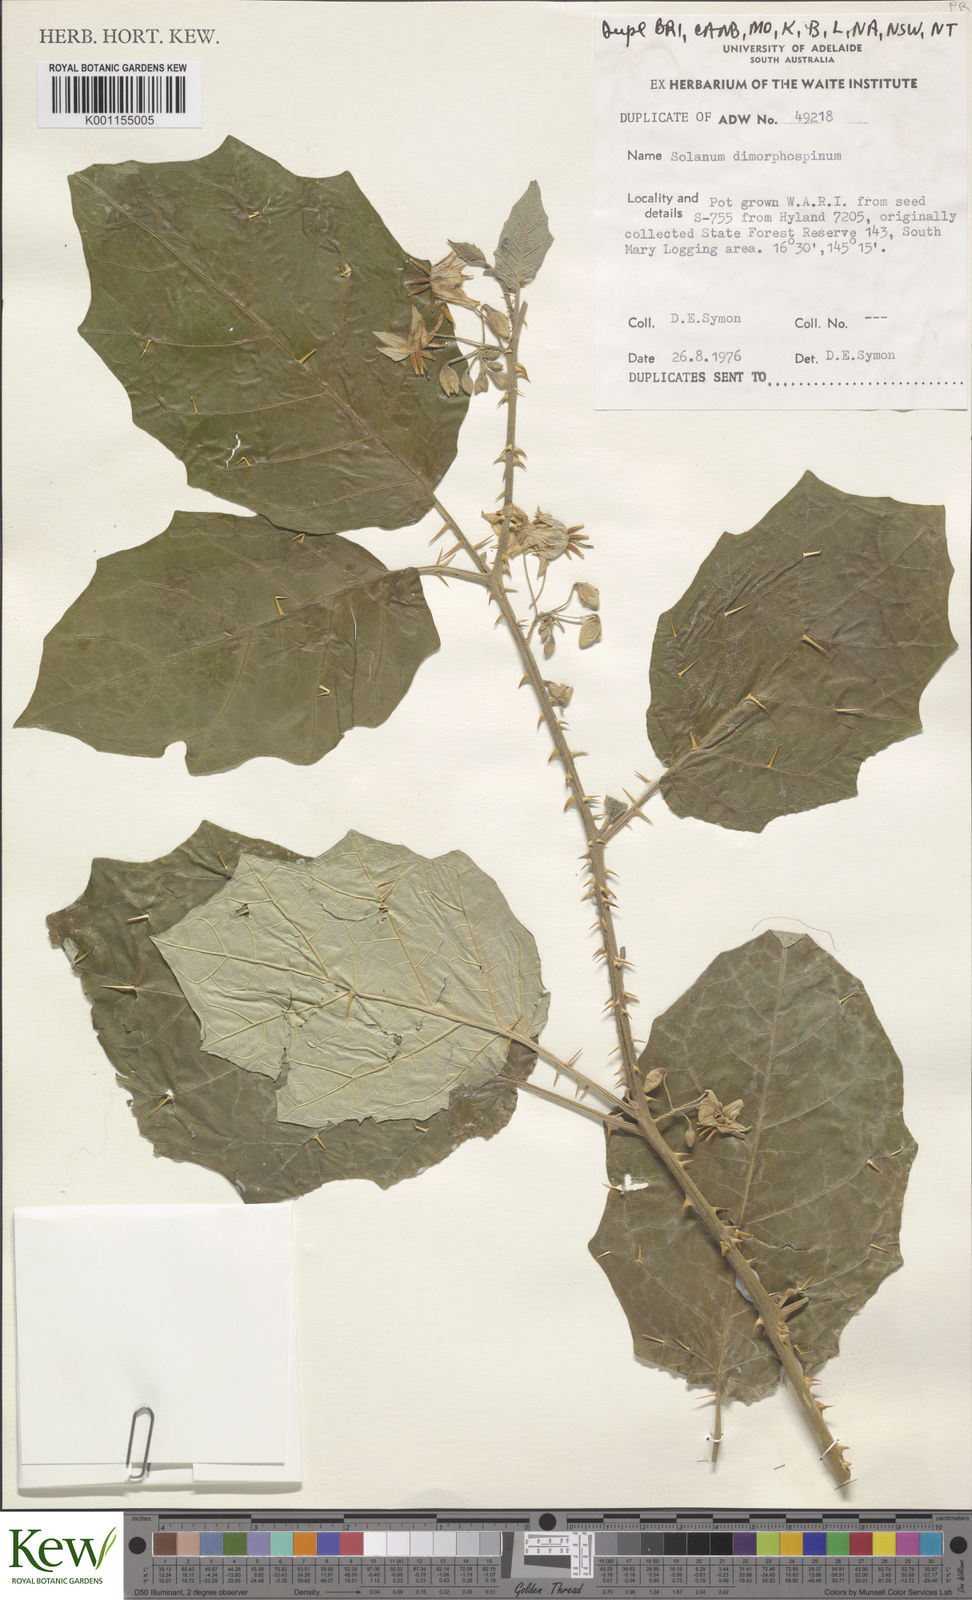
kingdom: Plantae
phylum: Tracheophyta
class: Magnoliopsida
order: Solanales
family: Solanaceae
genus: Solanum
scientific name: Solanum dimorphispinum
